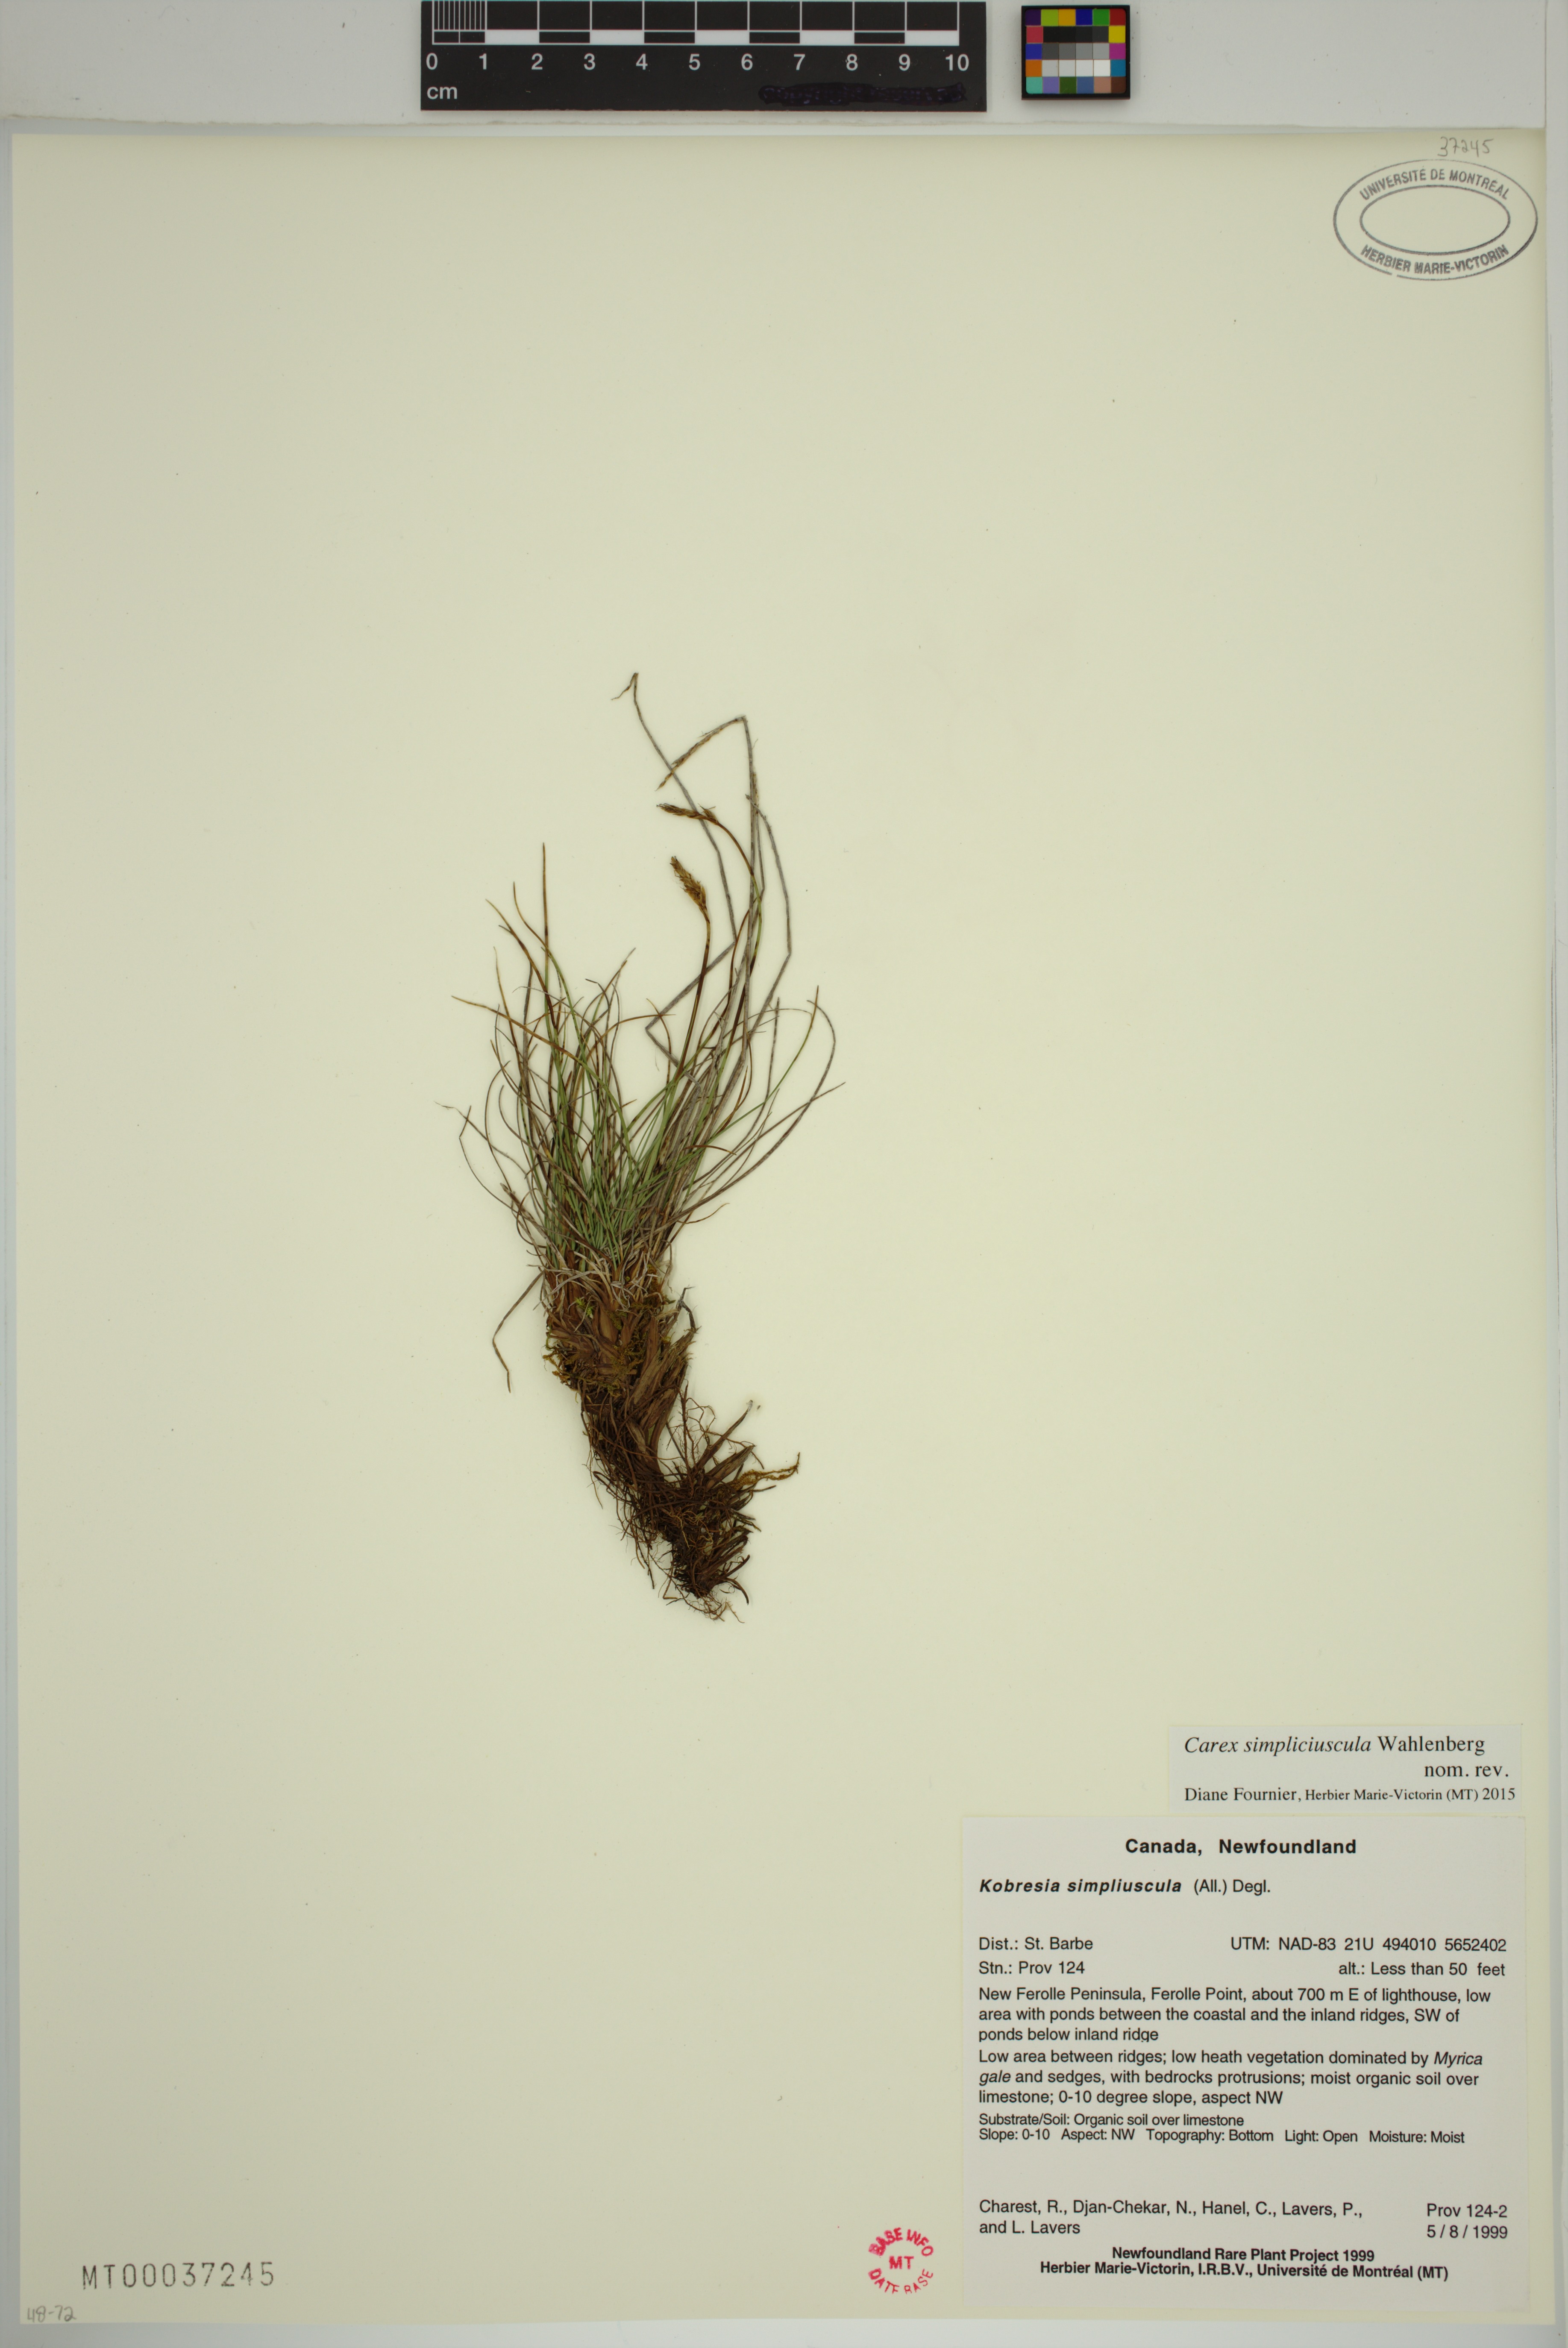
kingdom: Plantae
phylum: Tracheophyta
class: Liliopsida
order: Poales
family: Cyperaceae
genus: Carex
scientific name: Carex simpliciuscula
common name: Simple bog sedge
